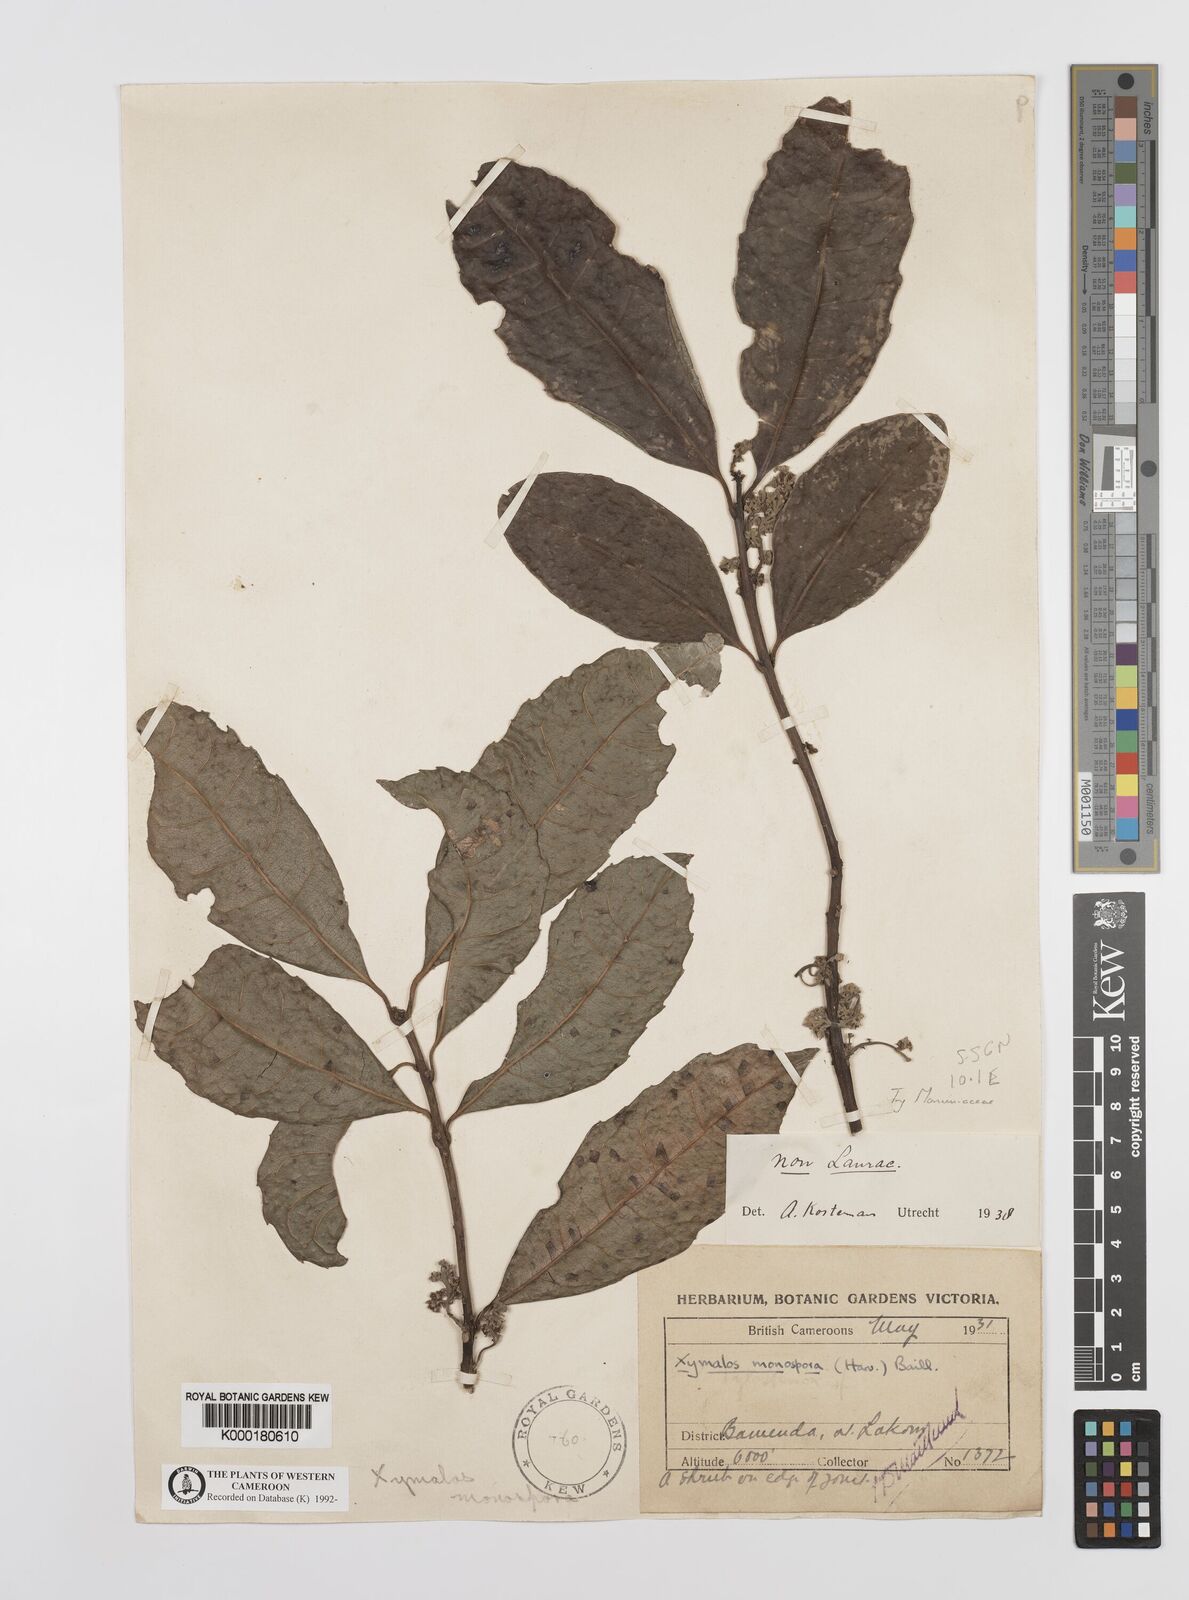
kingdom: Plantae
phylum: Tracheophyta
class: Magnoliopsida
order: Laurales
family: Monimiaceae
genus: Xymalos
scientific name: Xymalos
